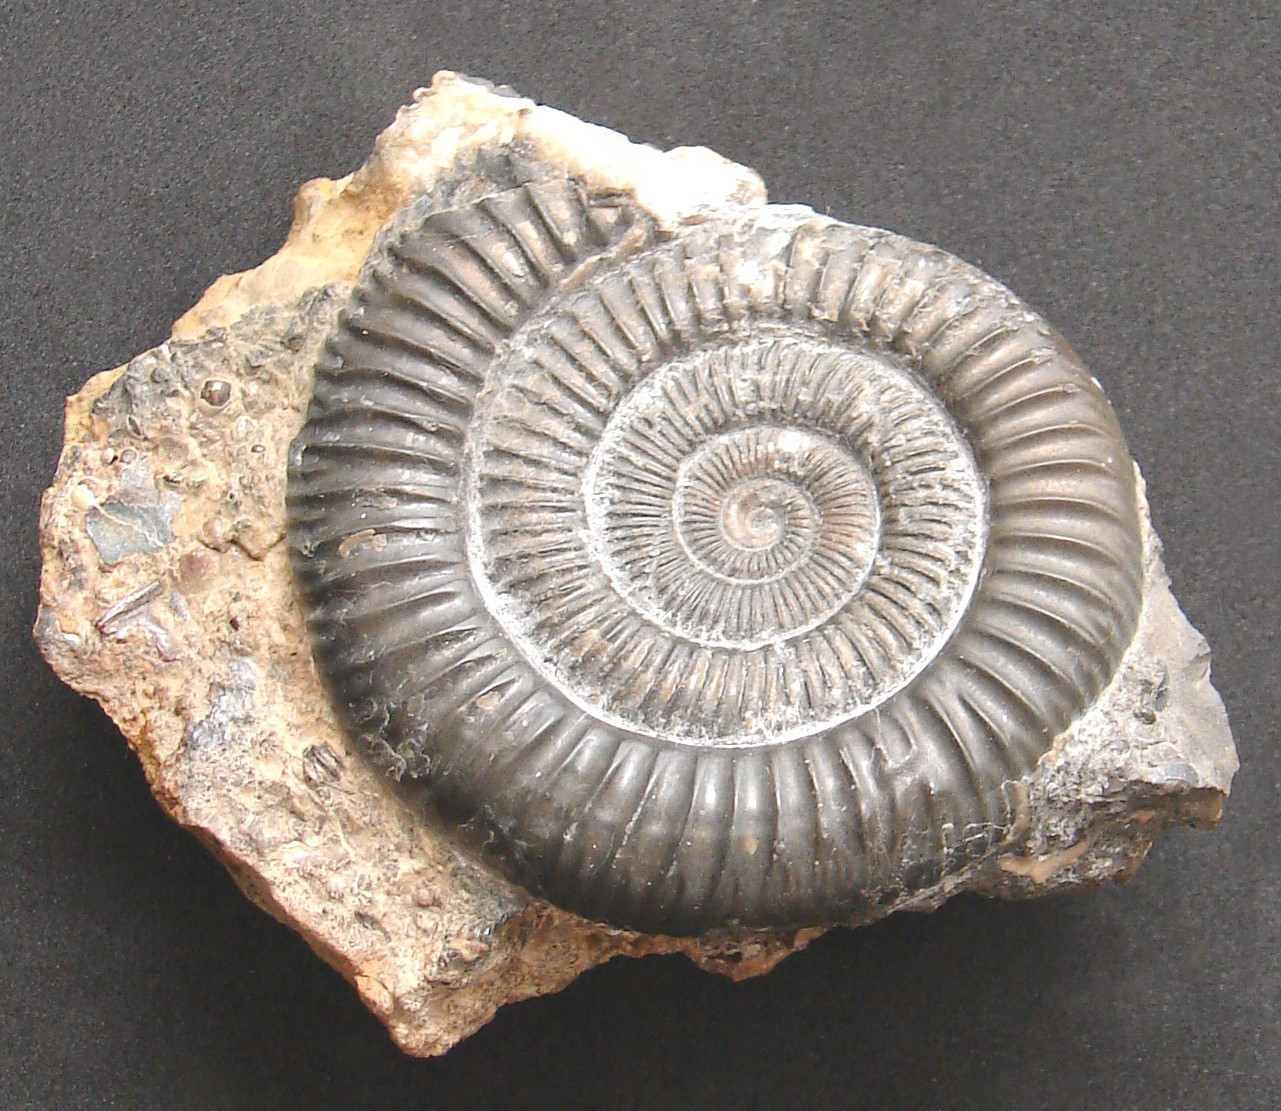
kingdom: Animalia
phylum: Mollusca
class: Cephalopoda
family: Dactylioceratidae
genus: Dactylioceras
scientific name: Dactylioceras athleticum
